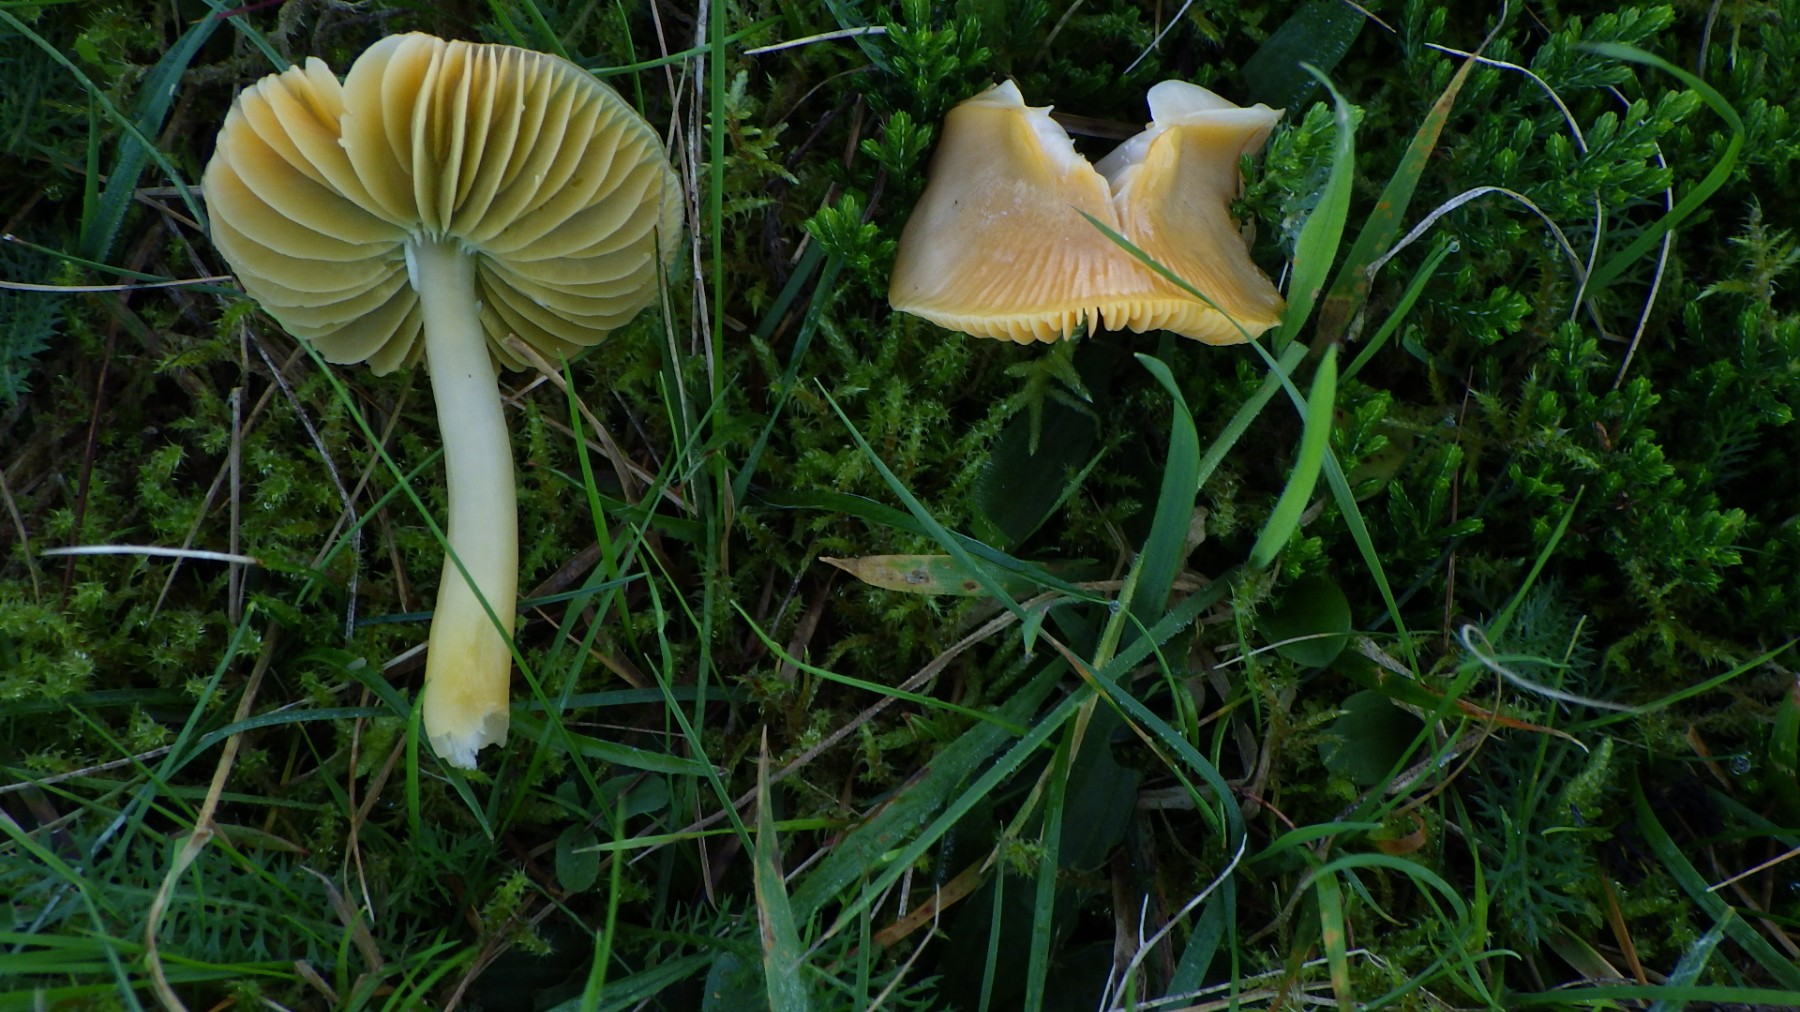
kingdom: Fungi
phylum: Basidiomycota
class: Agaricomycetes
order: Agaricales
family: Hygrophoraceae
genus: Gliophorus
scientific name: Gliophorus psittacinus
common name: papegøje-vokshat
